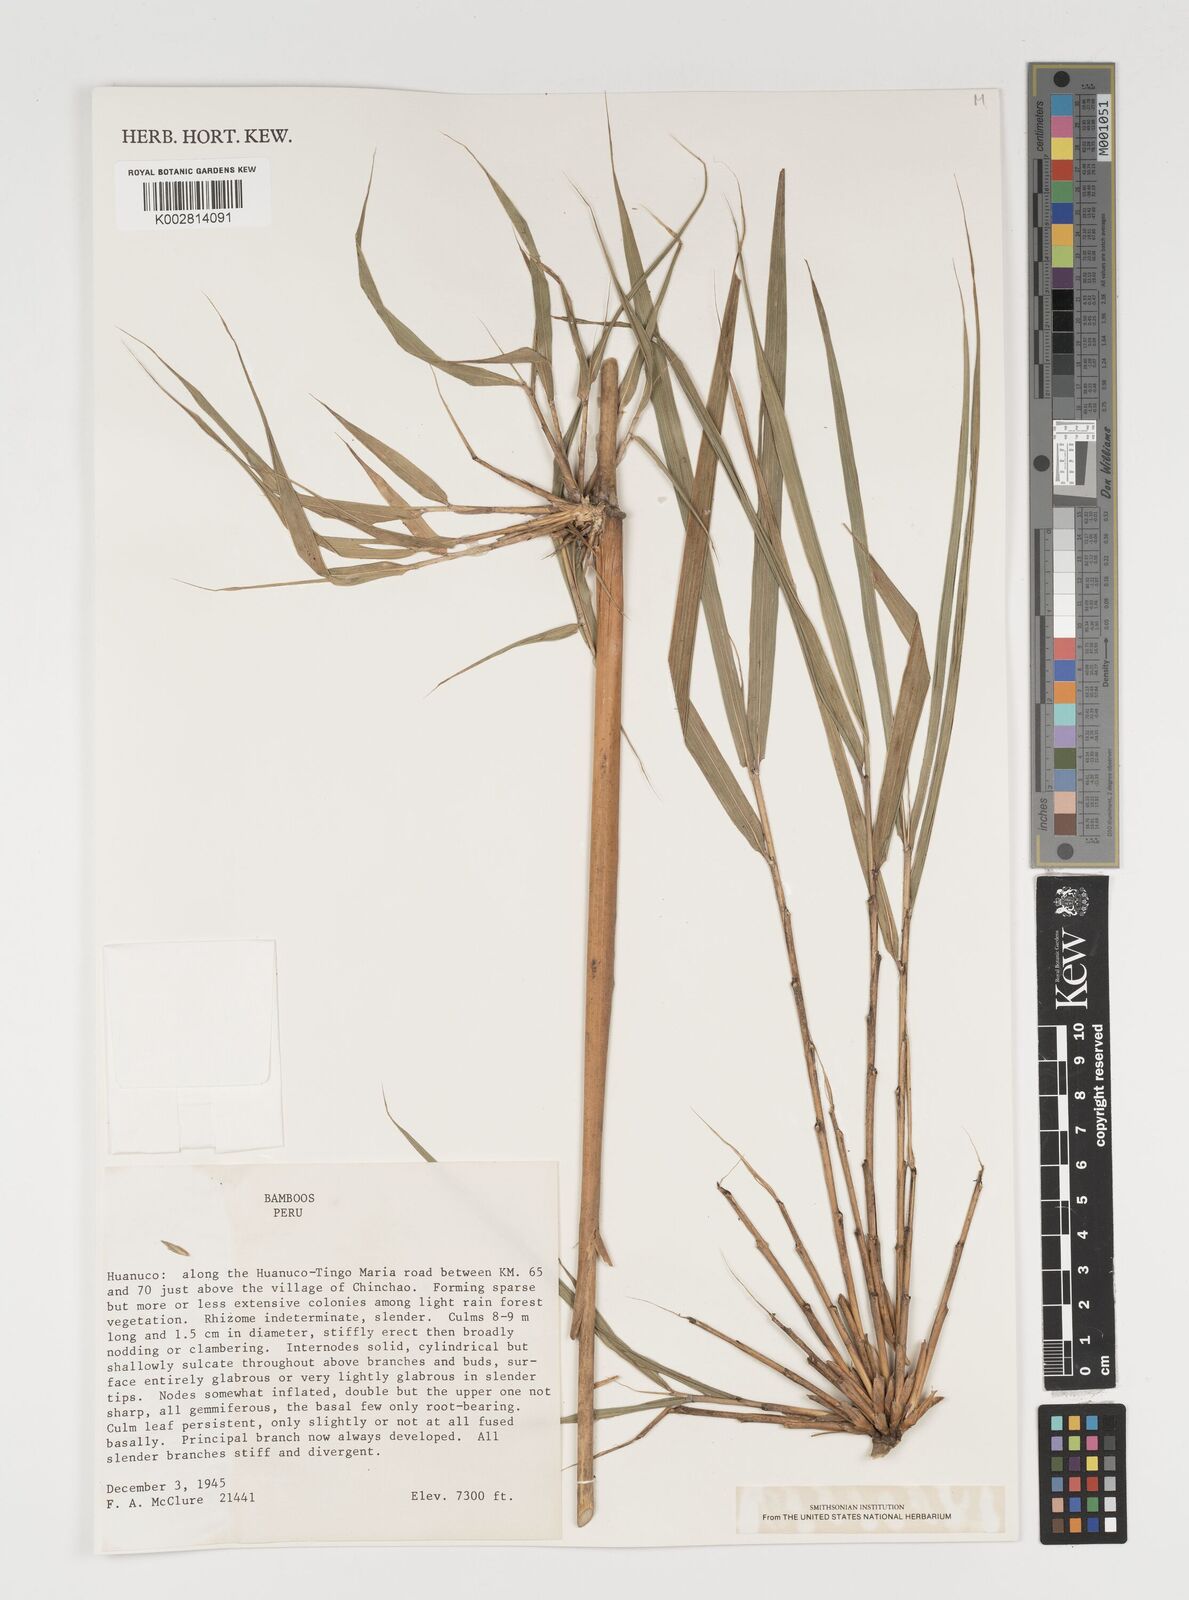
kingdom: Plantae
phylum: Tracheophyta
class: Liliopsida
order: Poales
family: Poaceae
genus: Chusquea
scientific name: Chusquea
